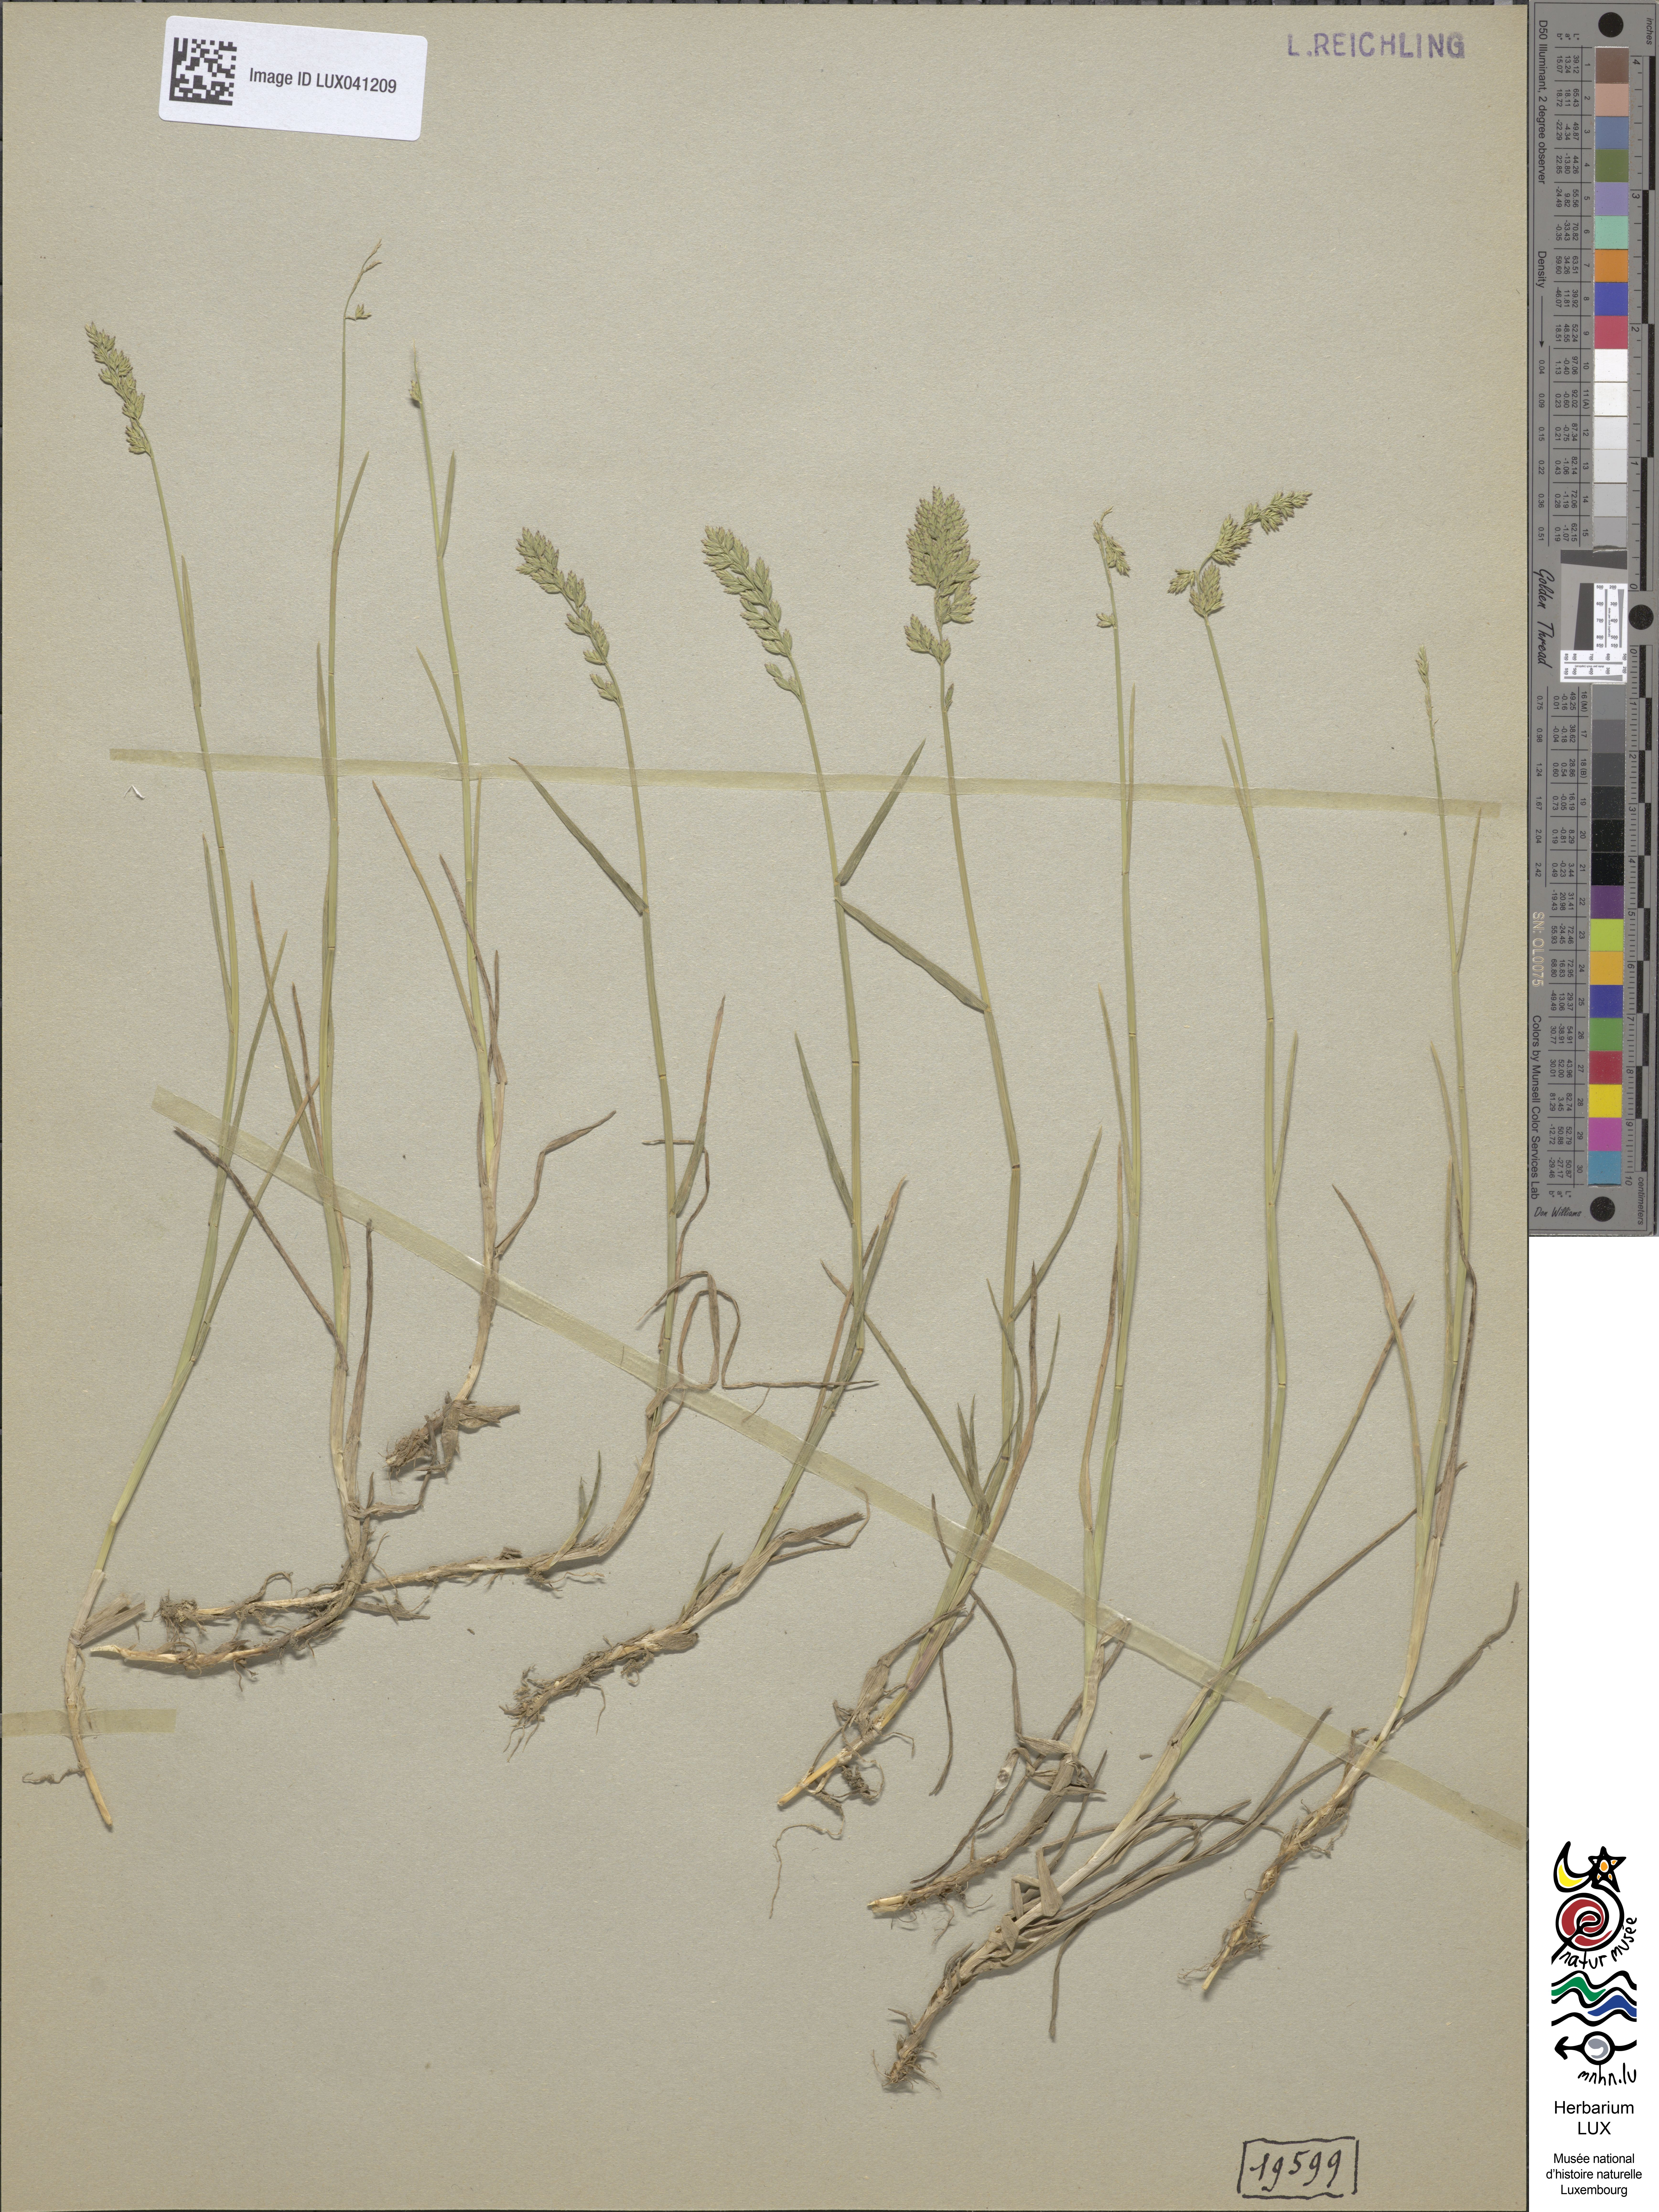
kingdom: Plantae
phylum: Tracheophyta
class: Liliopsida
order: Poales
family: Poaceae
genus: Poa
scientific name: Poa compressa
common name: Canada bluegrass
